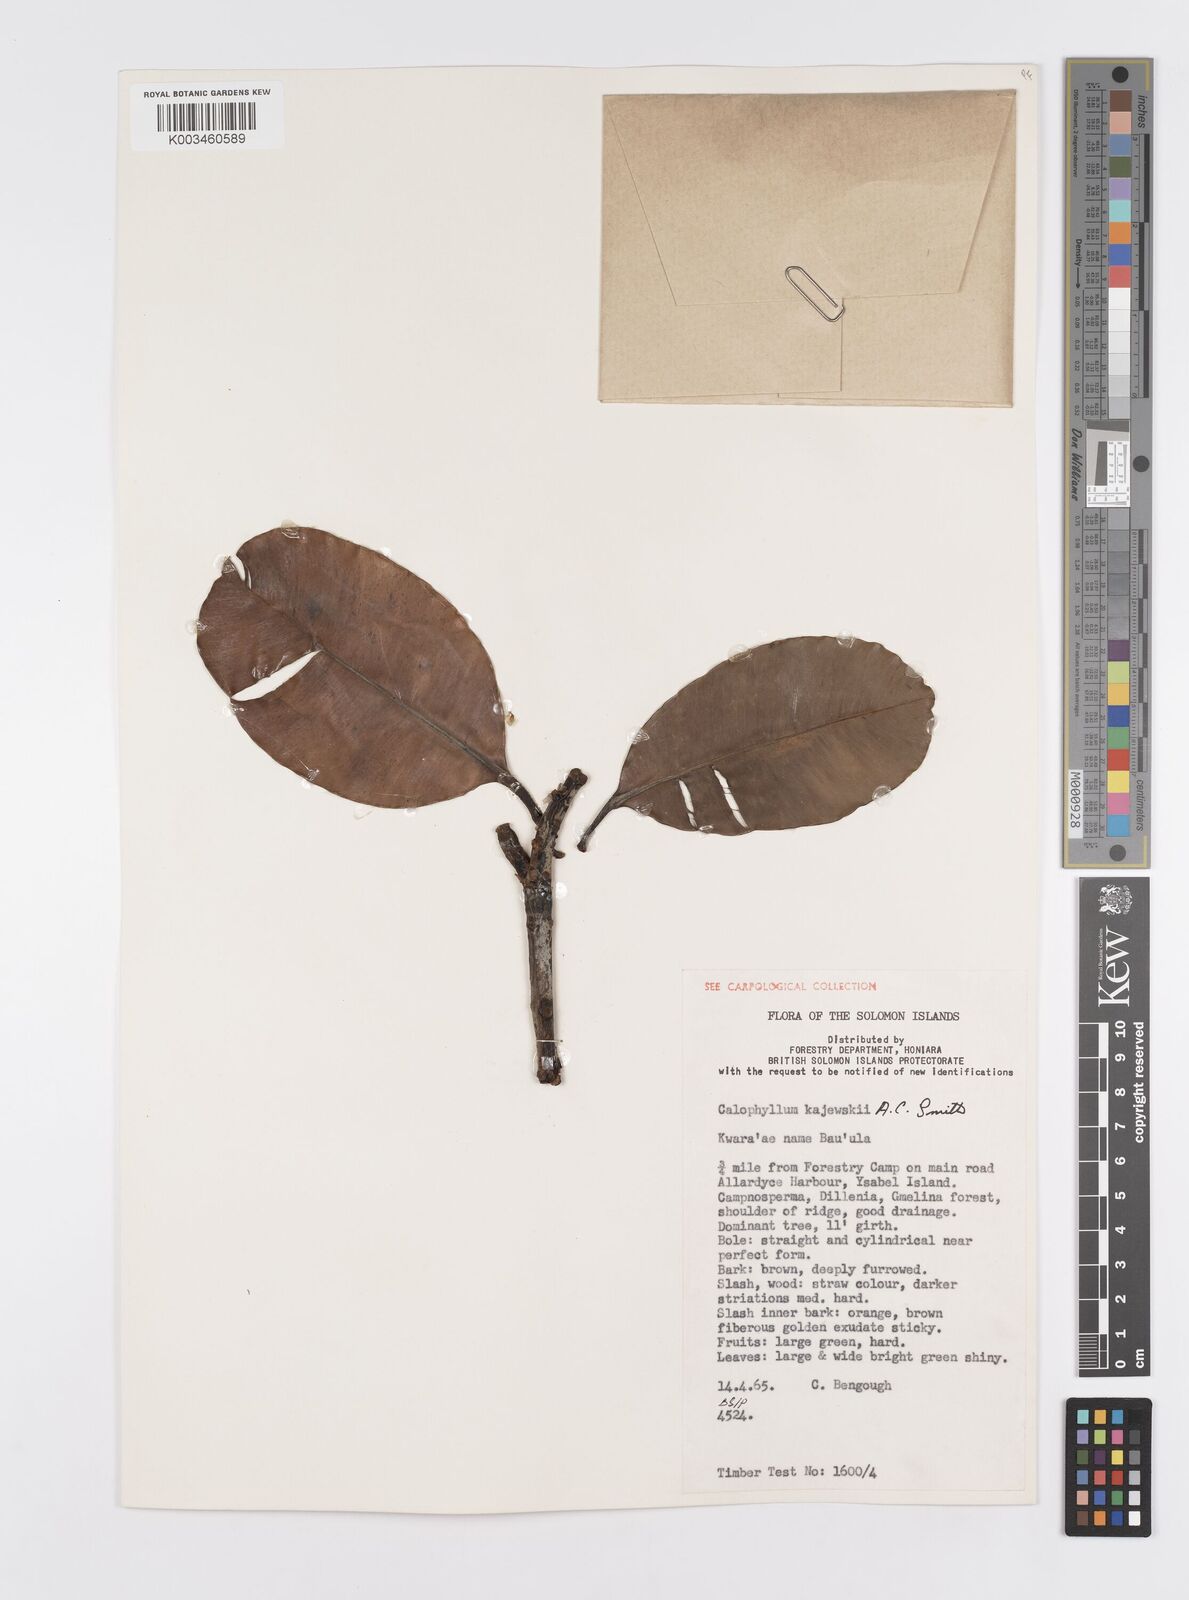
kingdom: Plantae
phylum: Tracheophyta
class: Magnoliopsida
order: Malpighiales
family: Calophyllaceae
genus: Calophyllum
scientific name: Calophyllum peekelii
